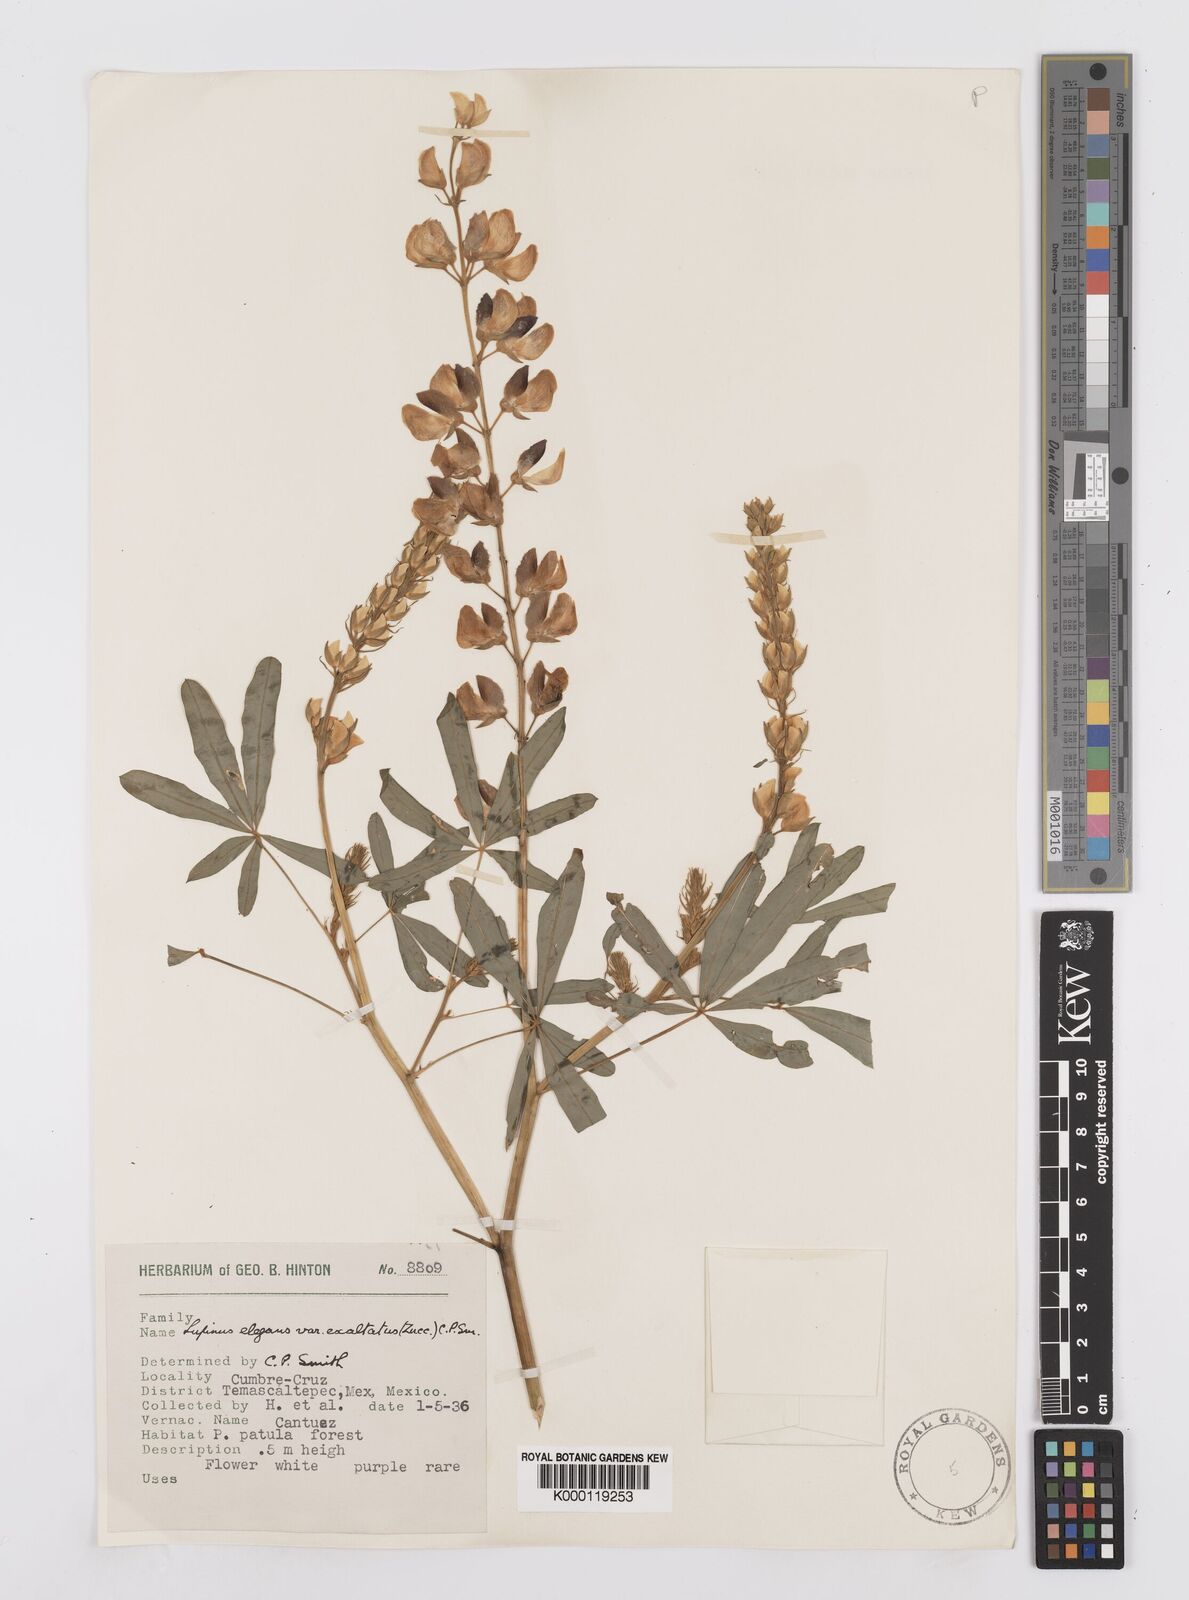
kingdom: Plantae
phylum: Tracheophyta
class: Magnoliopsida
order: Fabales
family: Fabaceae
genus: Lupinus
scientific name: Lupinus elegans
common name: Mexican lupine
